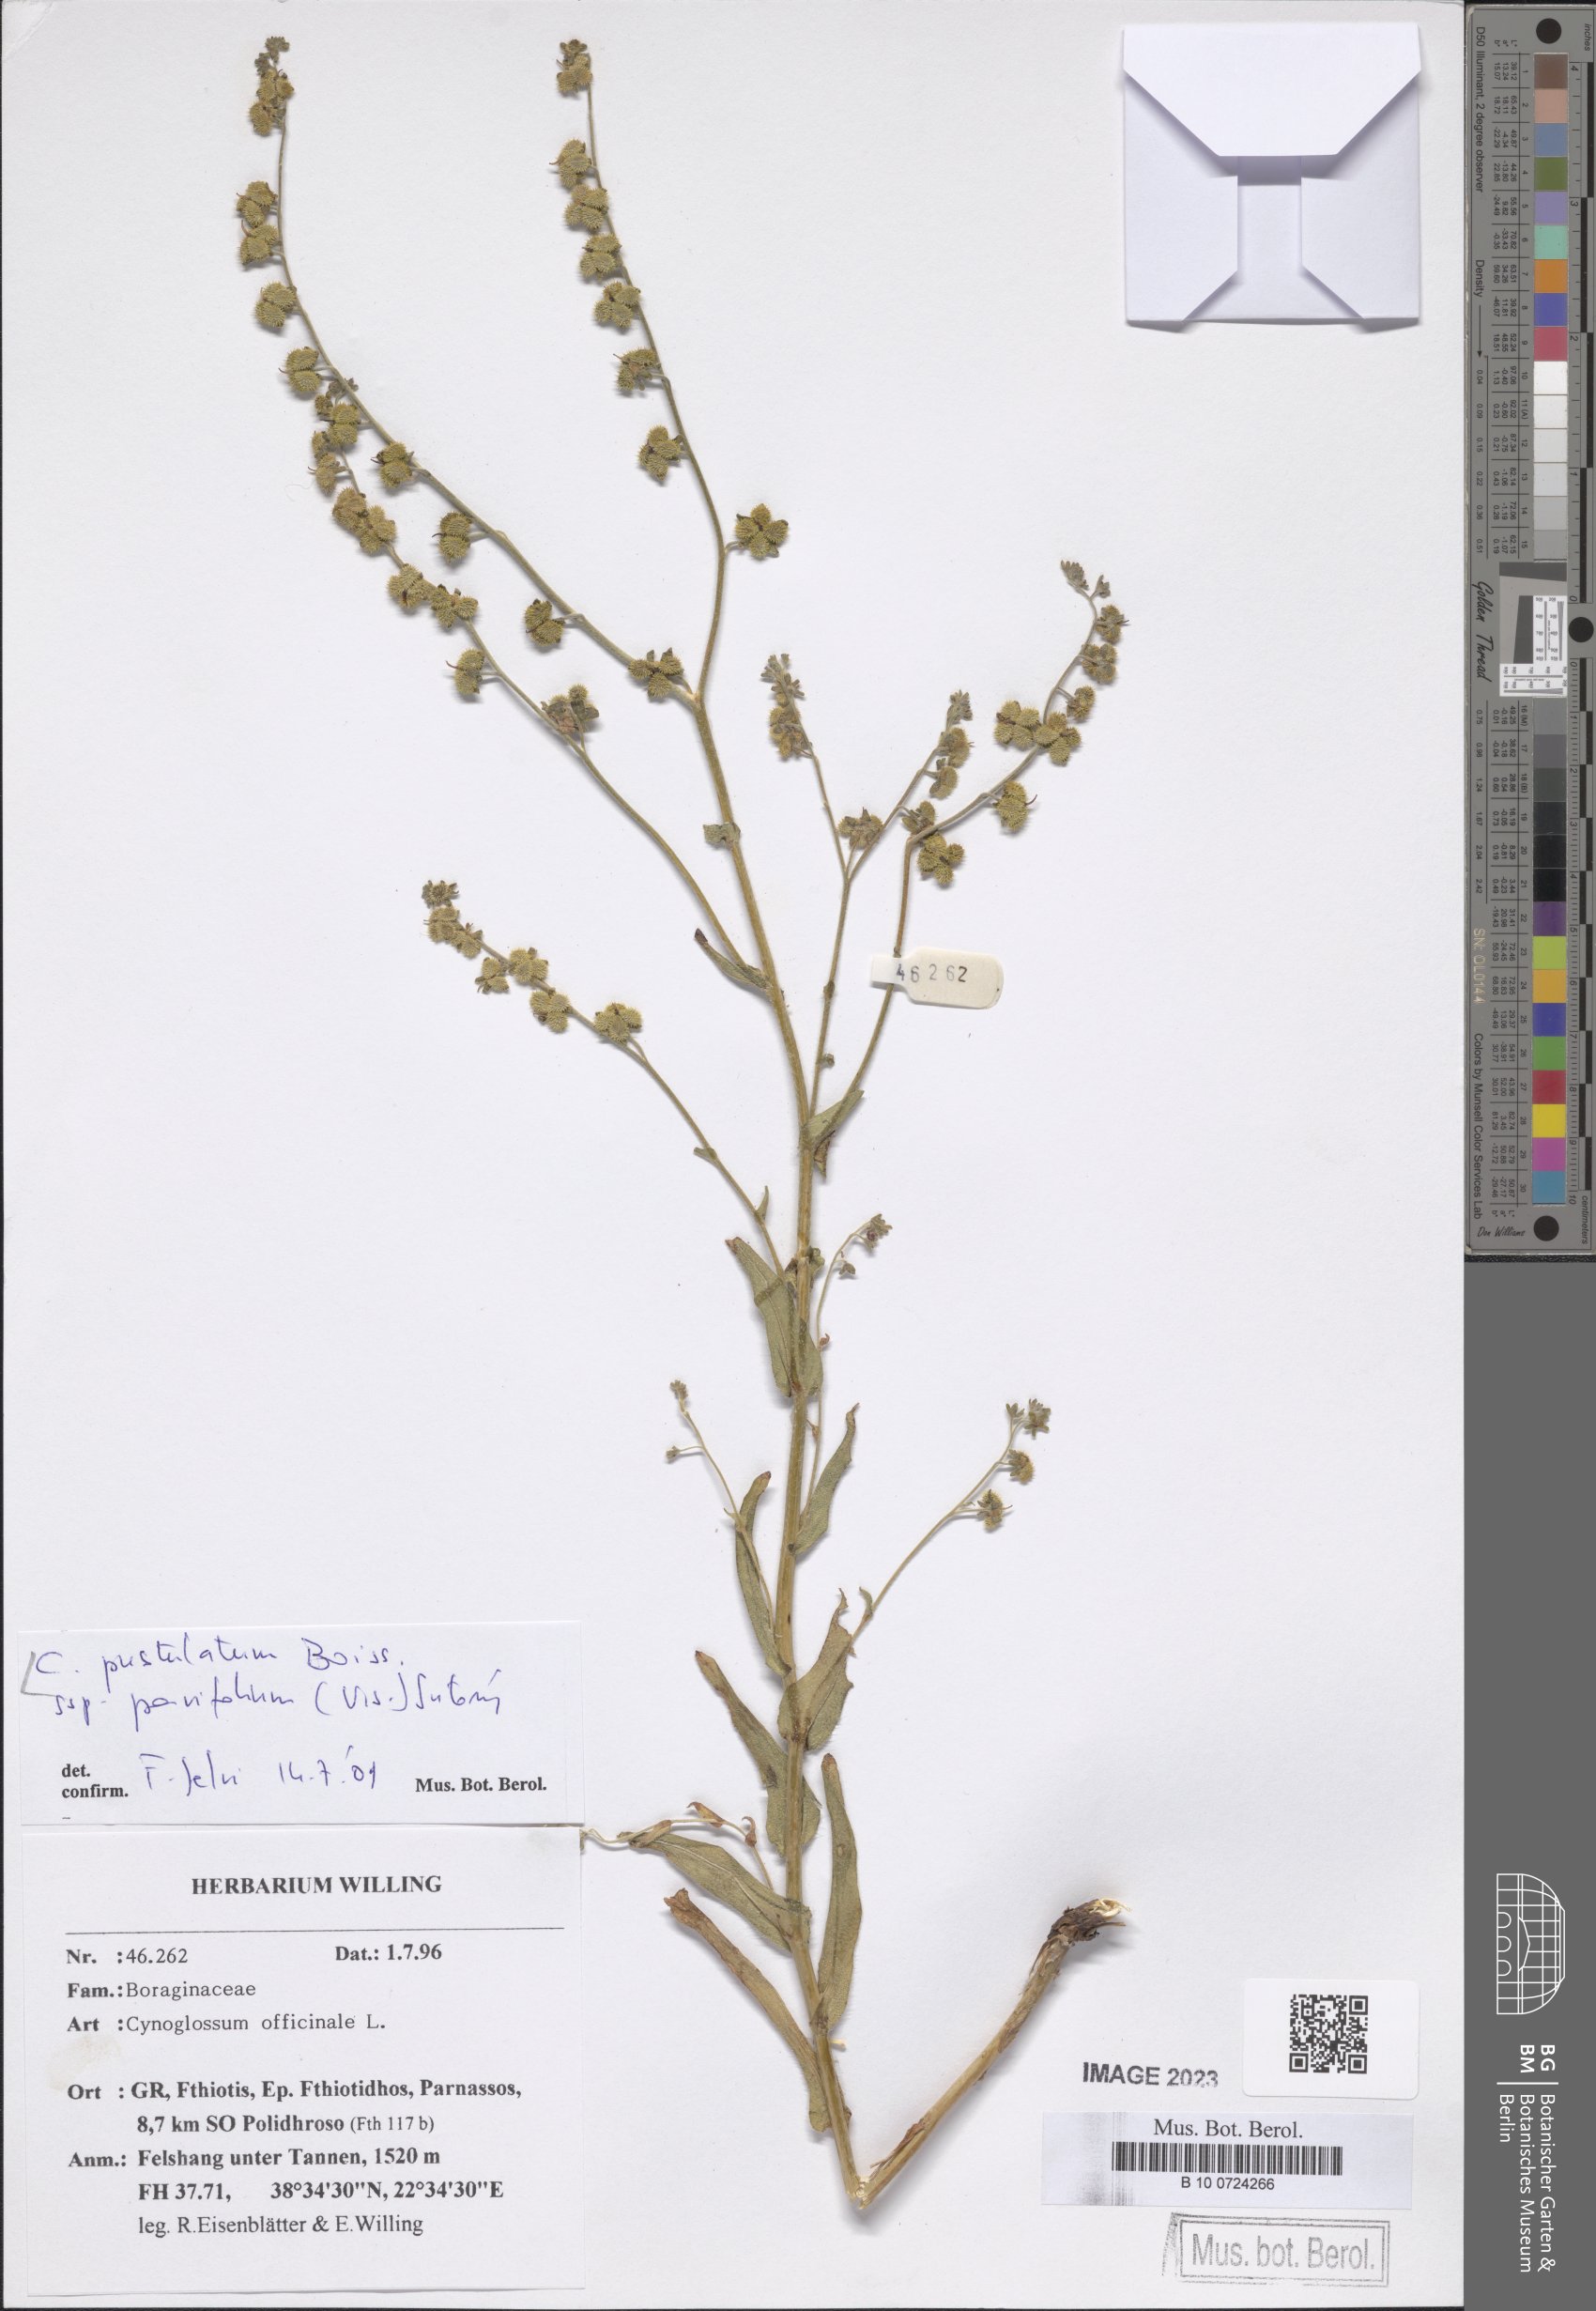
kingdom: Plantae
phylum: Tracheophyta
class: Magnoliopsida
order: Boraginales
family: Boraginaceae
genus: Cynoglossum
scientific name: Cynoglossum pustulatum
